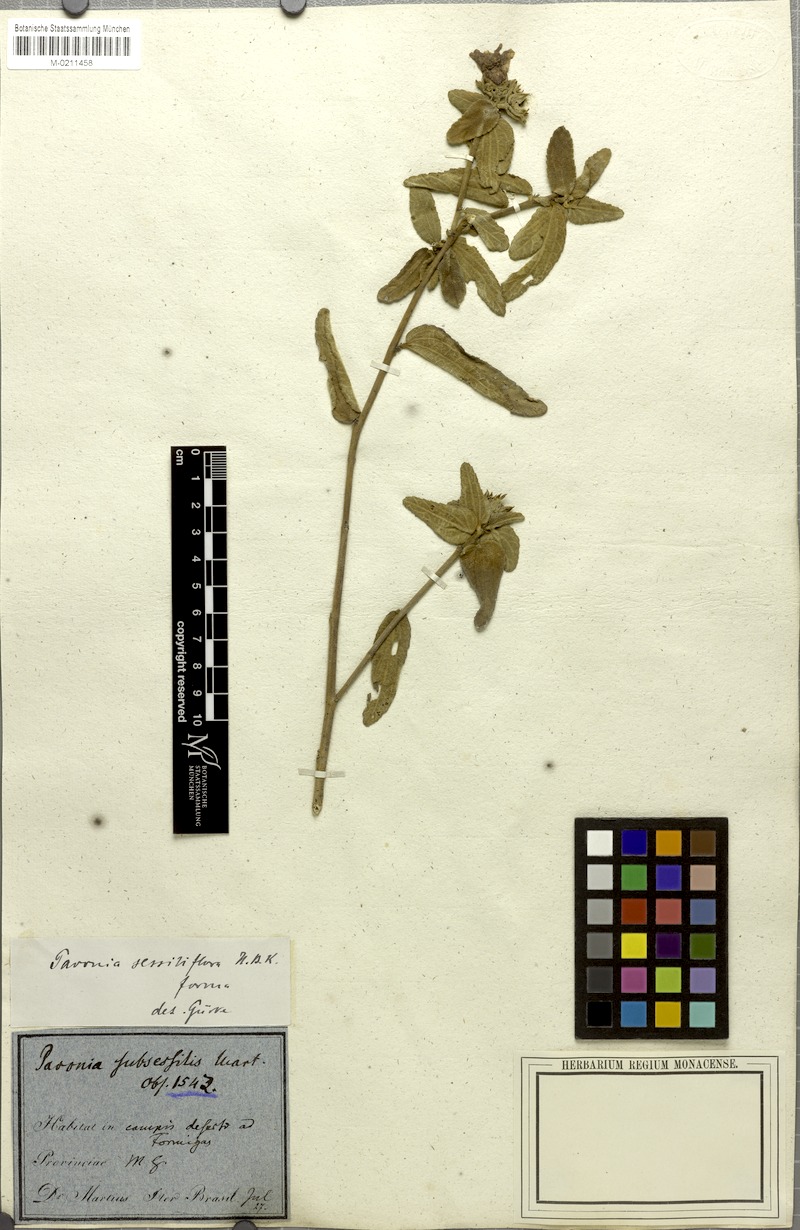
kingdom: Plantae
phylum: Tracheophyta
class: Magnoliopsida
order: Malvales
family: Malvaceae
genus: Peltaea
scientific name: Peltaea sessiliflora
